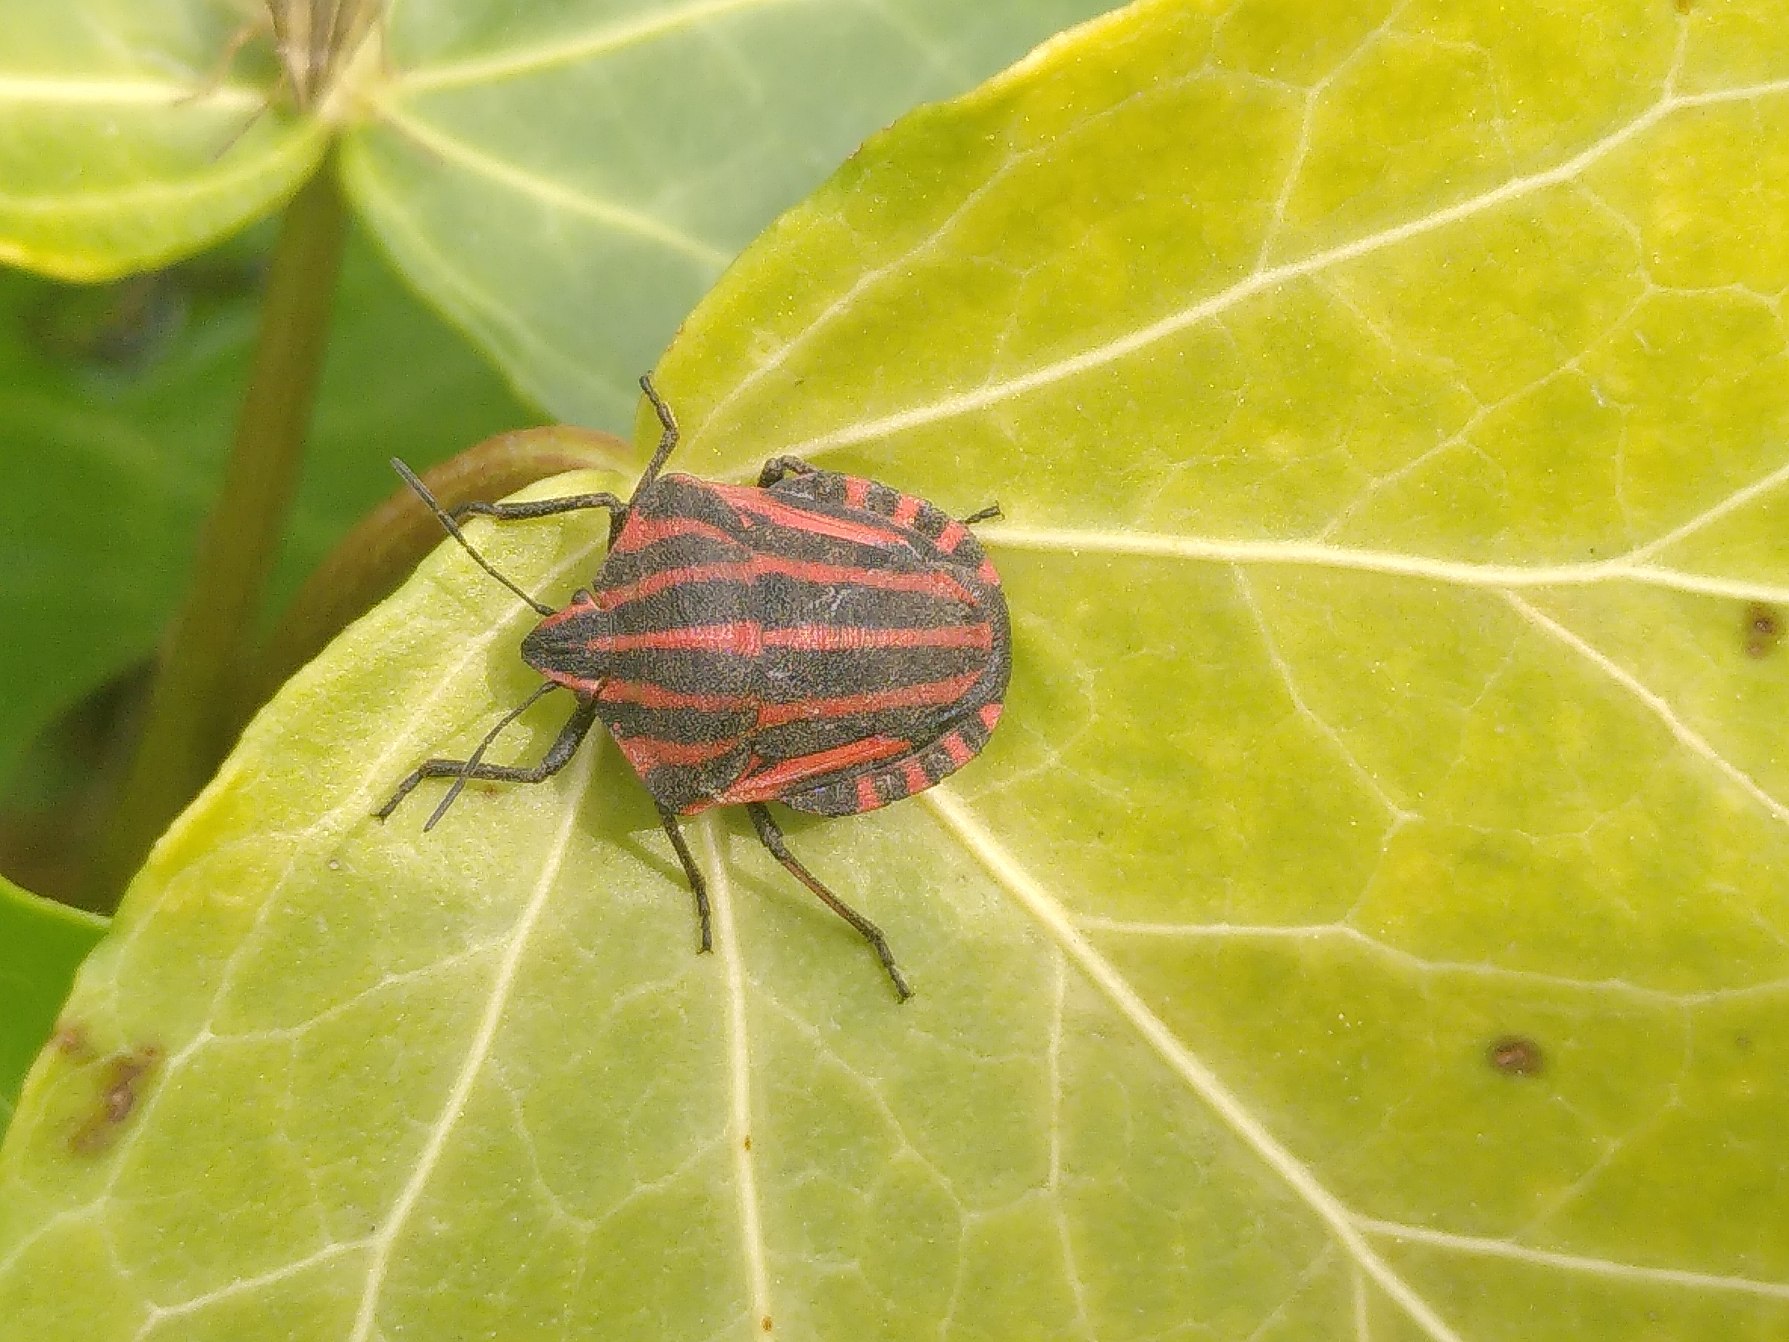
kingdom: Animalia
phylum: Arthropoda
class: Insecta
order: Hemiptera
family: Pentatomidae
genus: Graphosoma
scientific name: Graphosoma italicum
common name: Stribetæge
